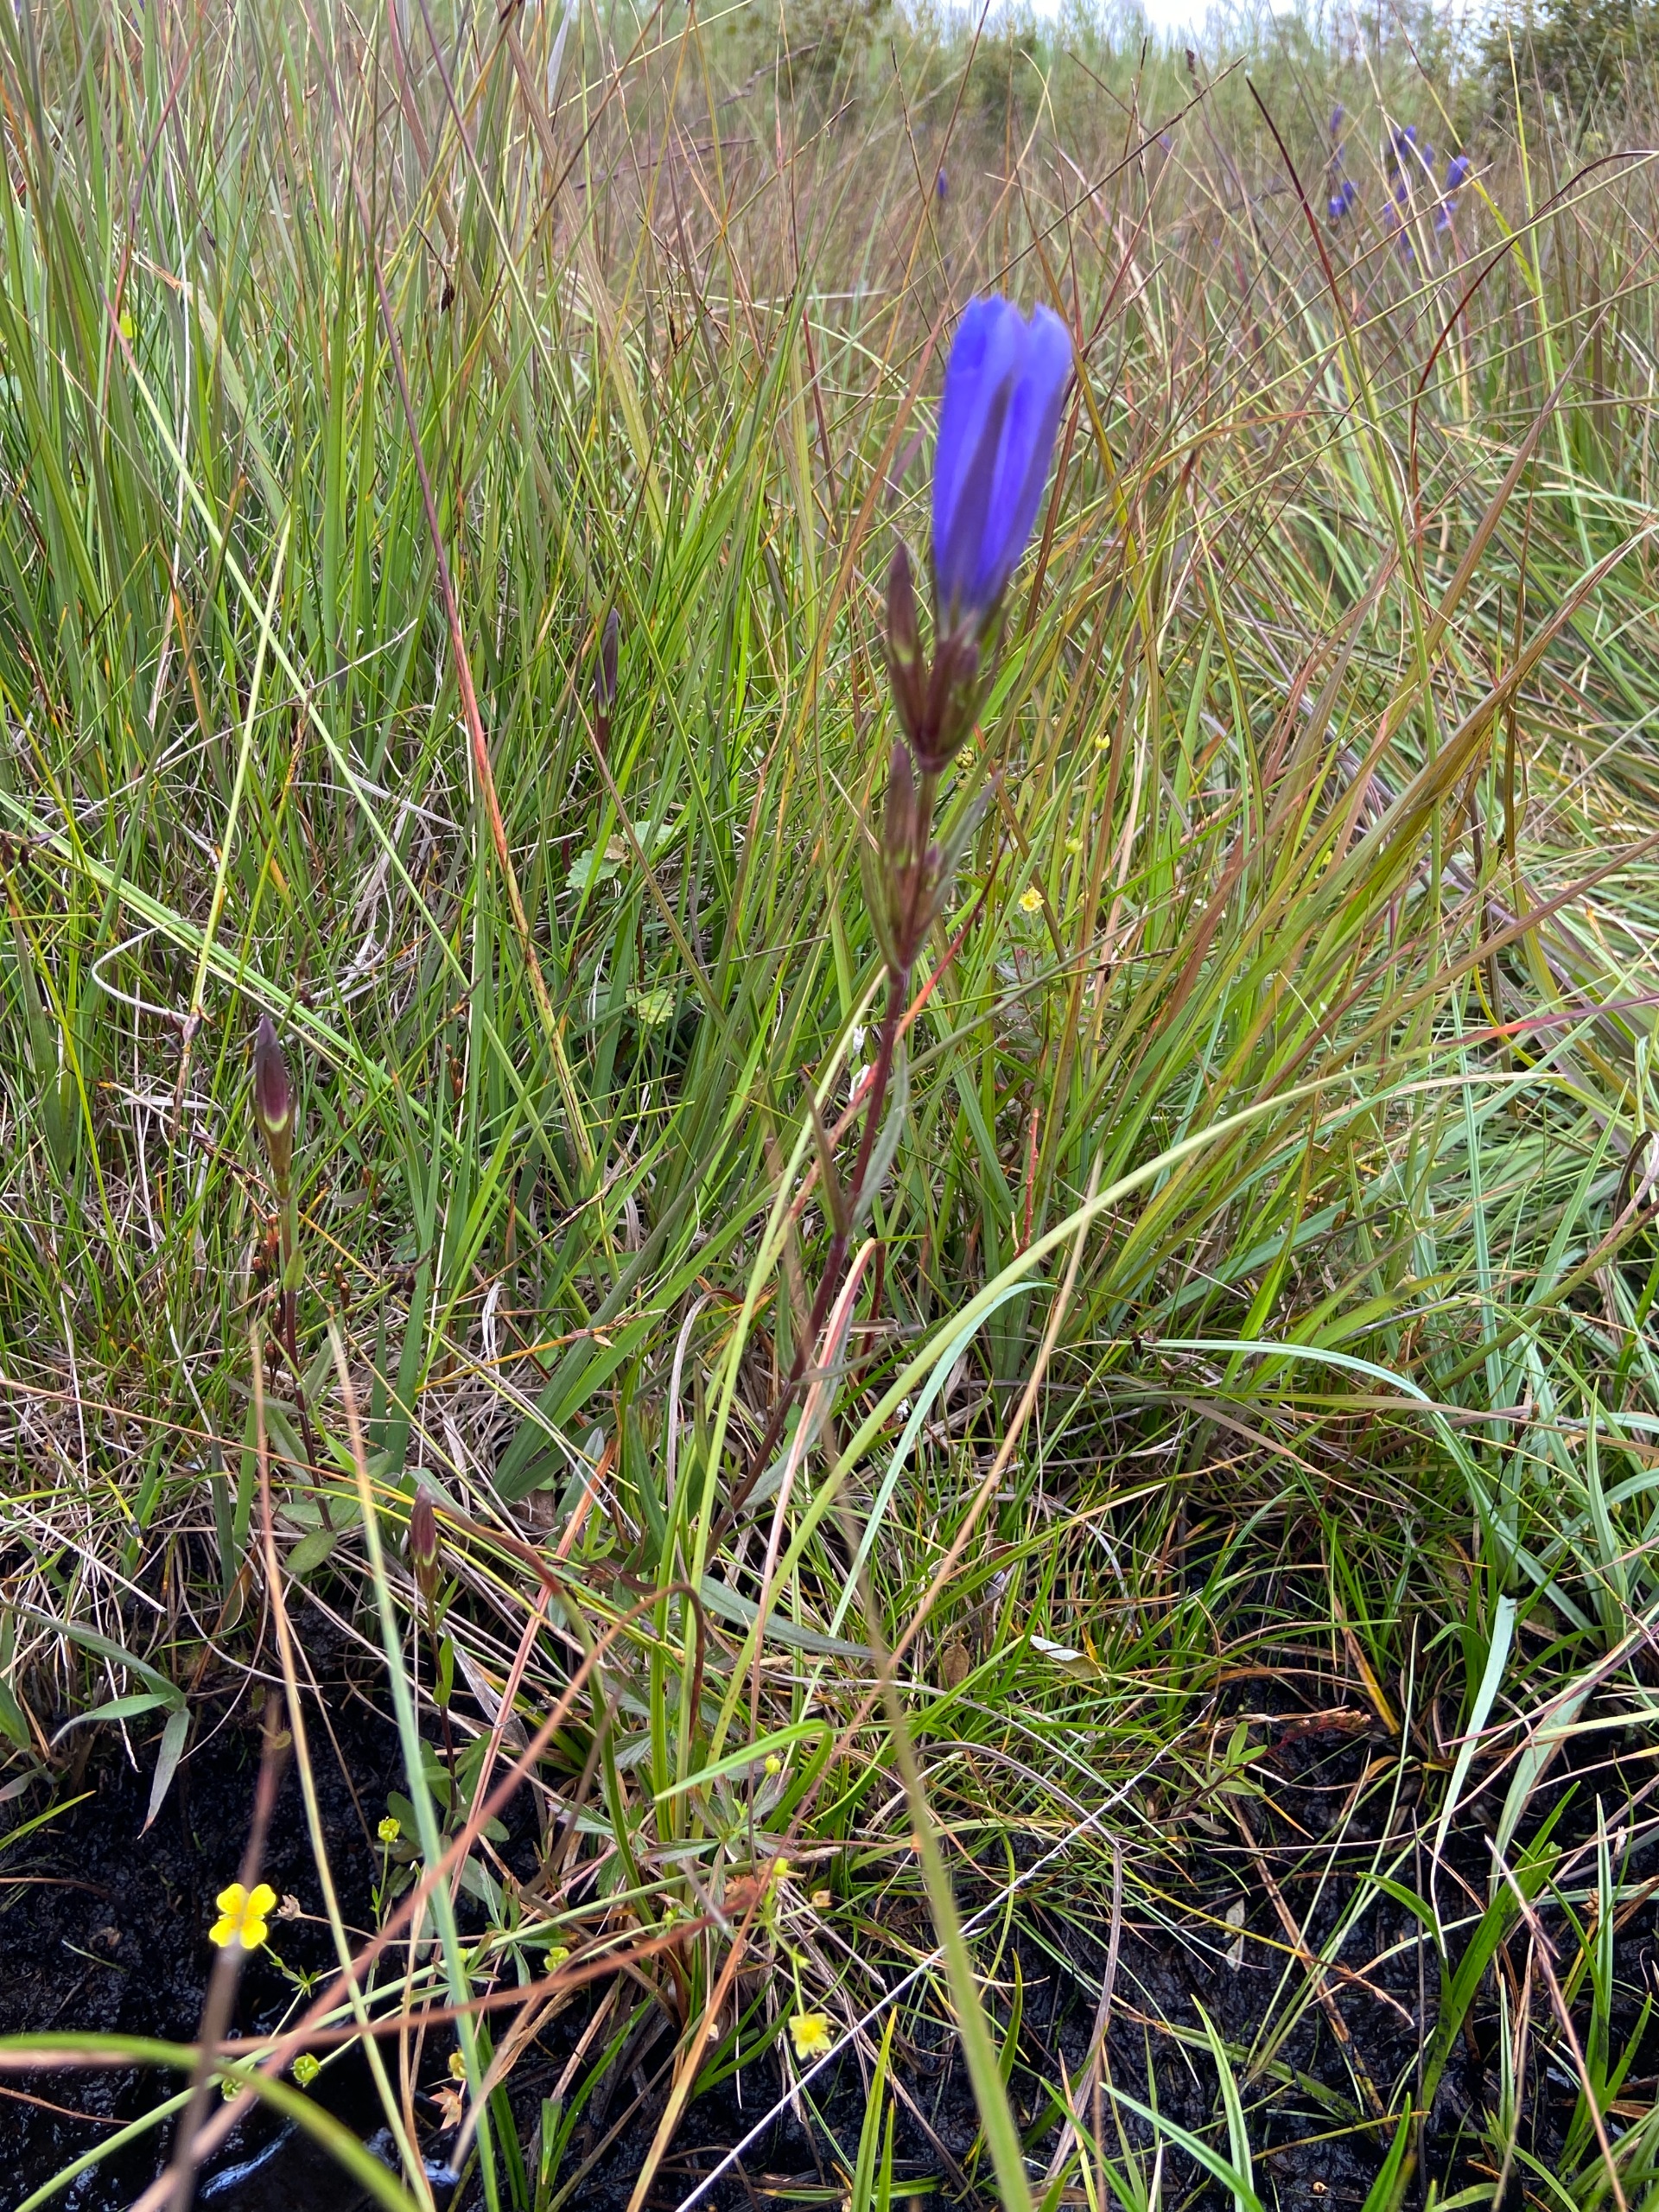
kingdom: Plantae
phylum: Tracheophyta
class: Magnoliopsida
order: Gentianales
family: Gentianaceae
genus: Gentiana
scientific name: Gentiana pneumonanthe
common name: Klokke-ensian
